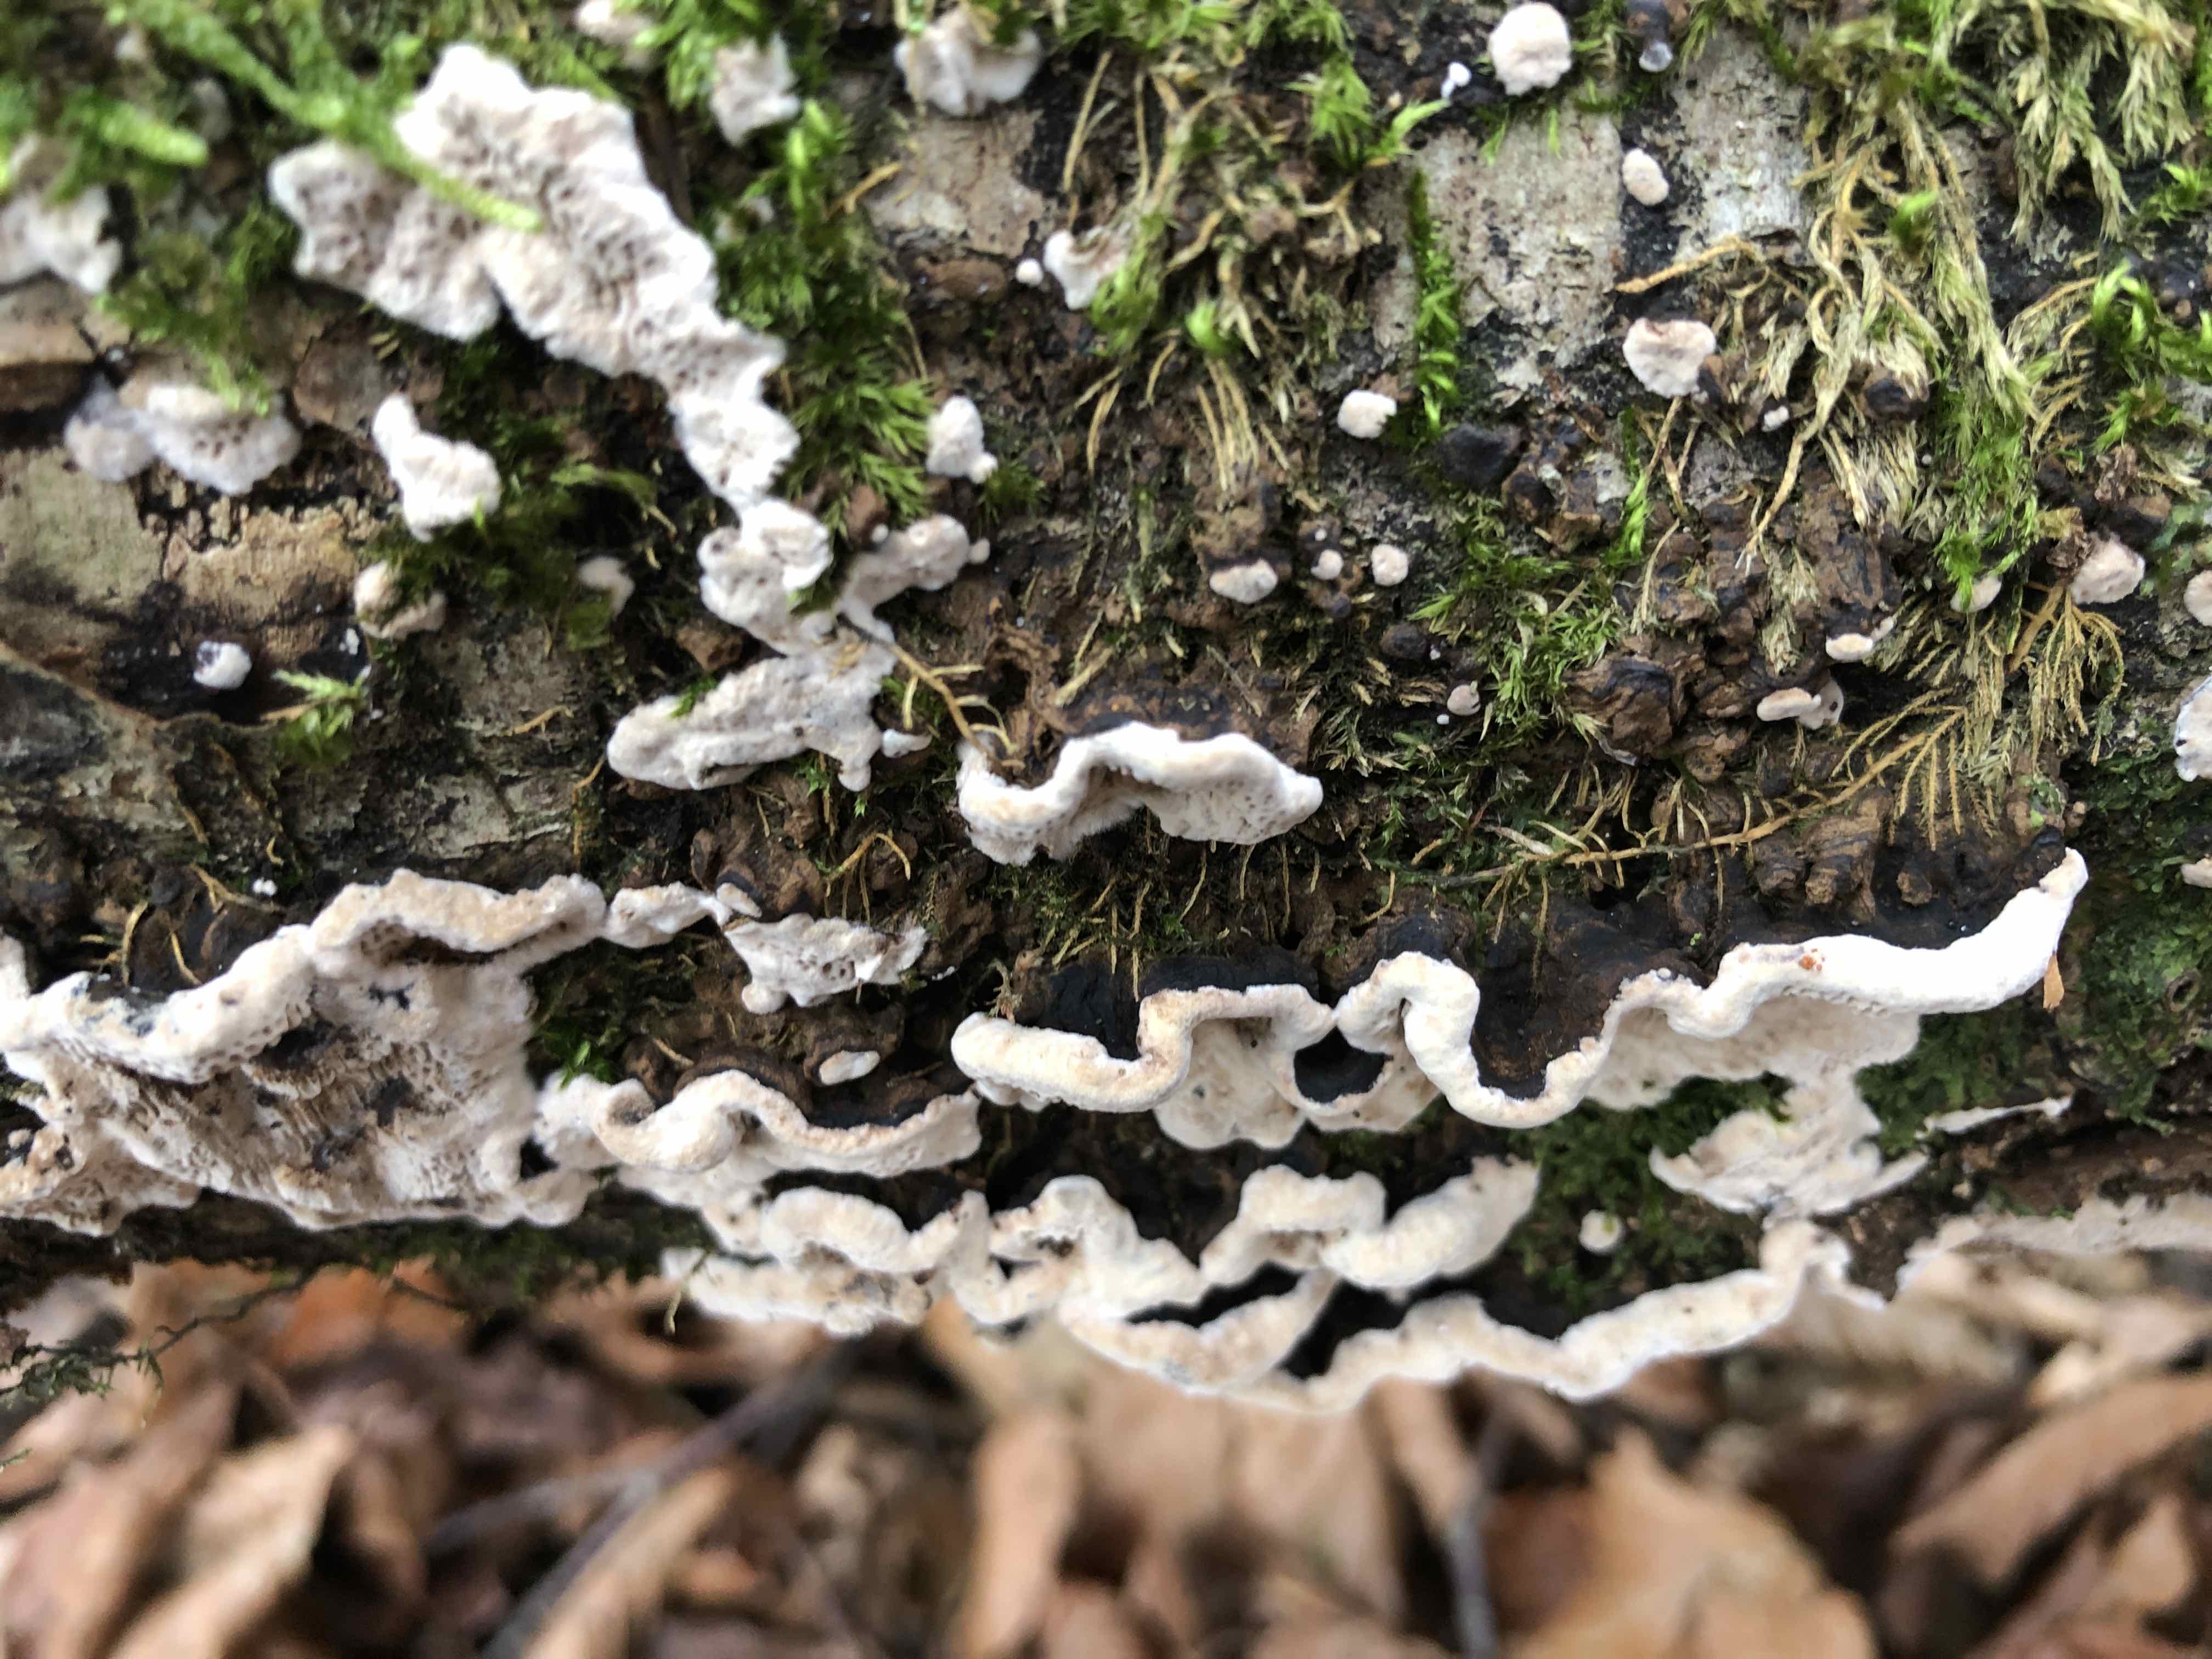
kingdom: Fungi
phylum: Basidiomycota
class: Agaricomycetes
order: Polyporales
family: Polyporaceae
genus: Podofomes
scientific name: Podofomes mollis
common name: blød begporesvamp
